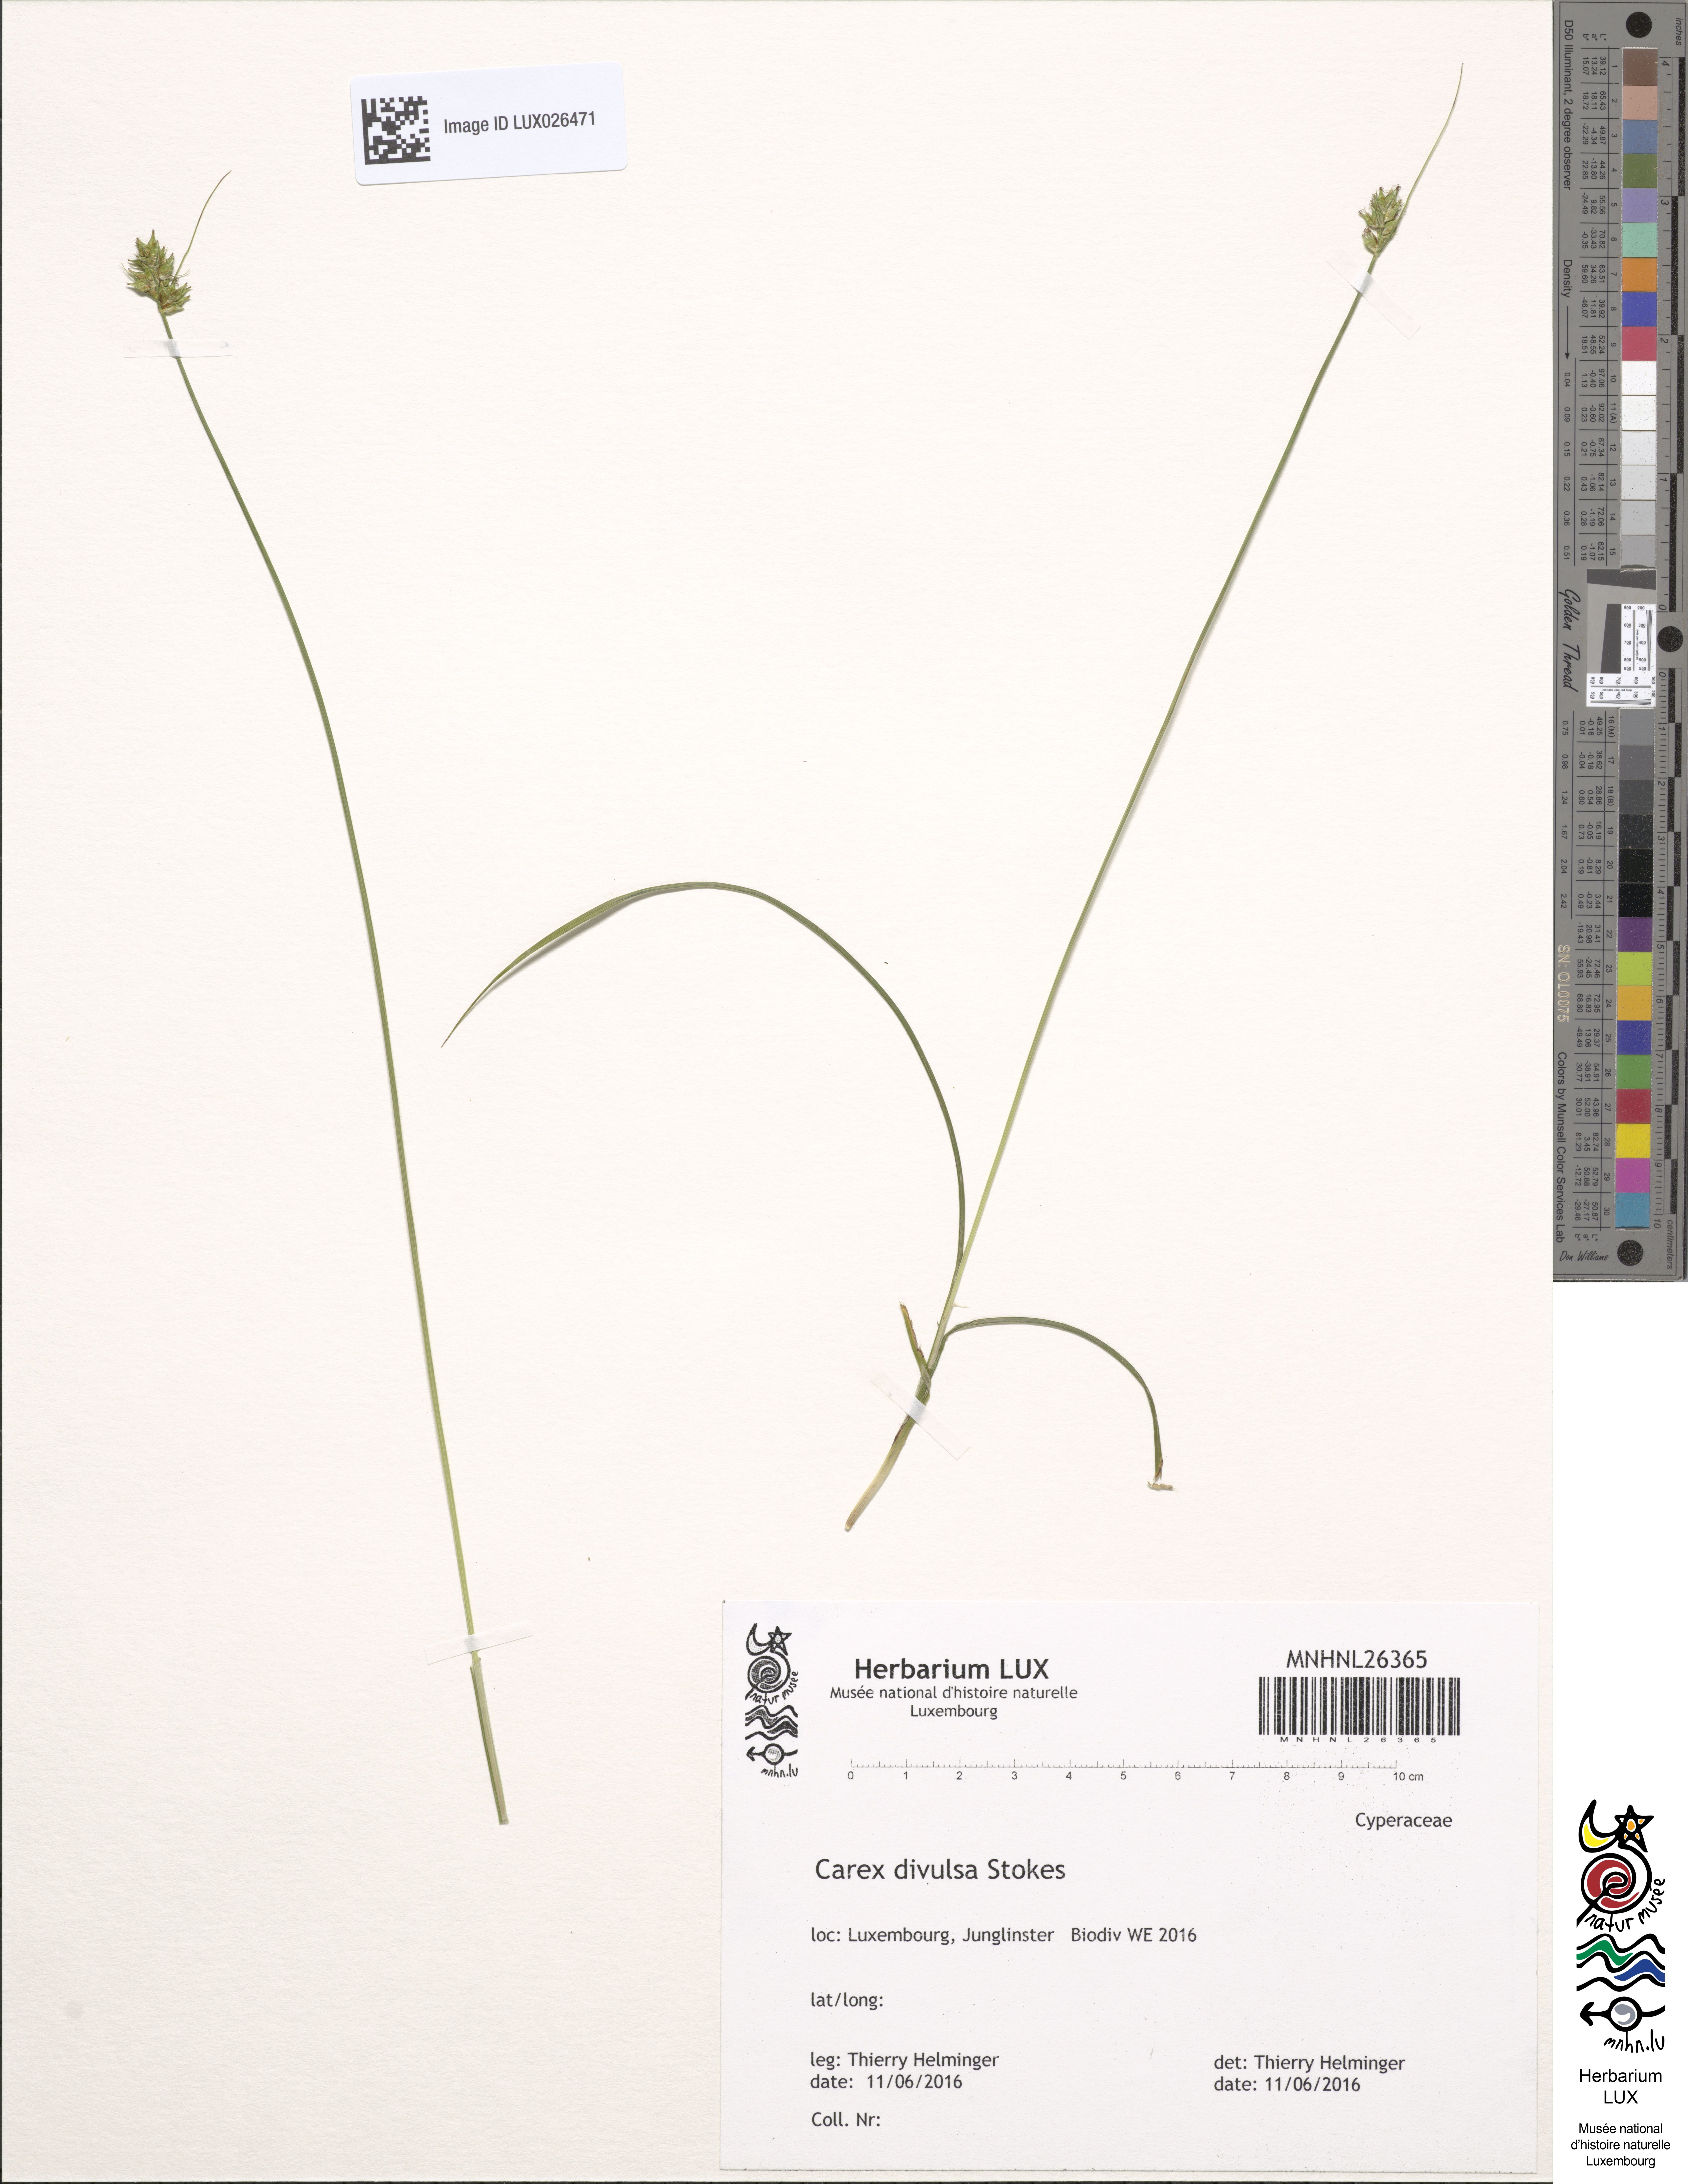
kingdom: Plantae
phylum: Tracheophyta
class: Liliopsida
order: Poales
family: Cyperaceae
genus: Carex
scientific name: Carex divulsa
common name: Grassland sedge
